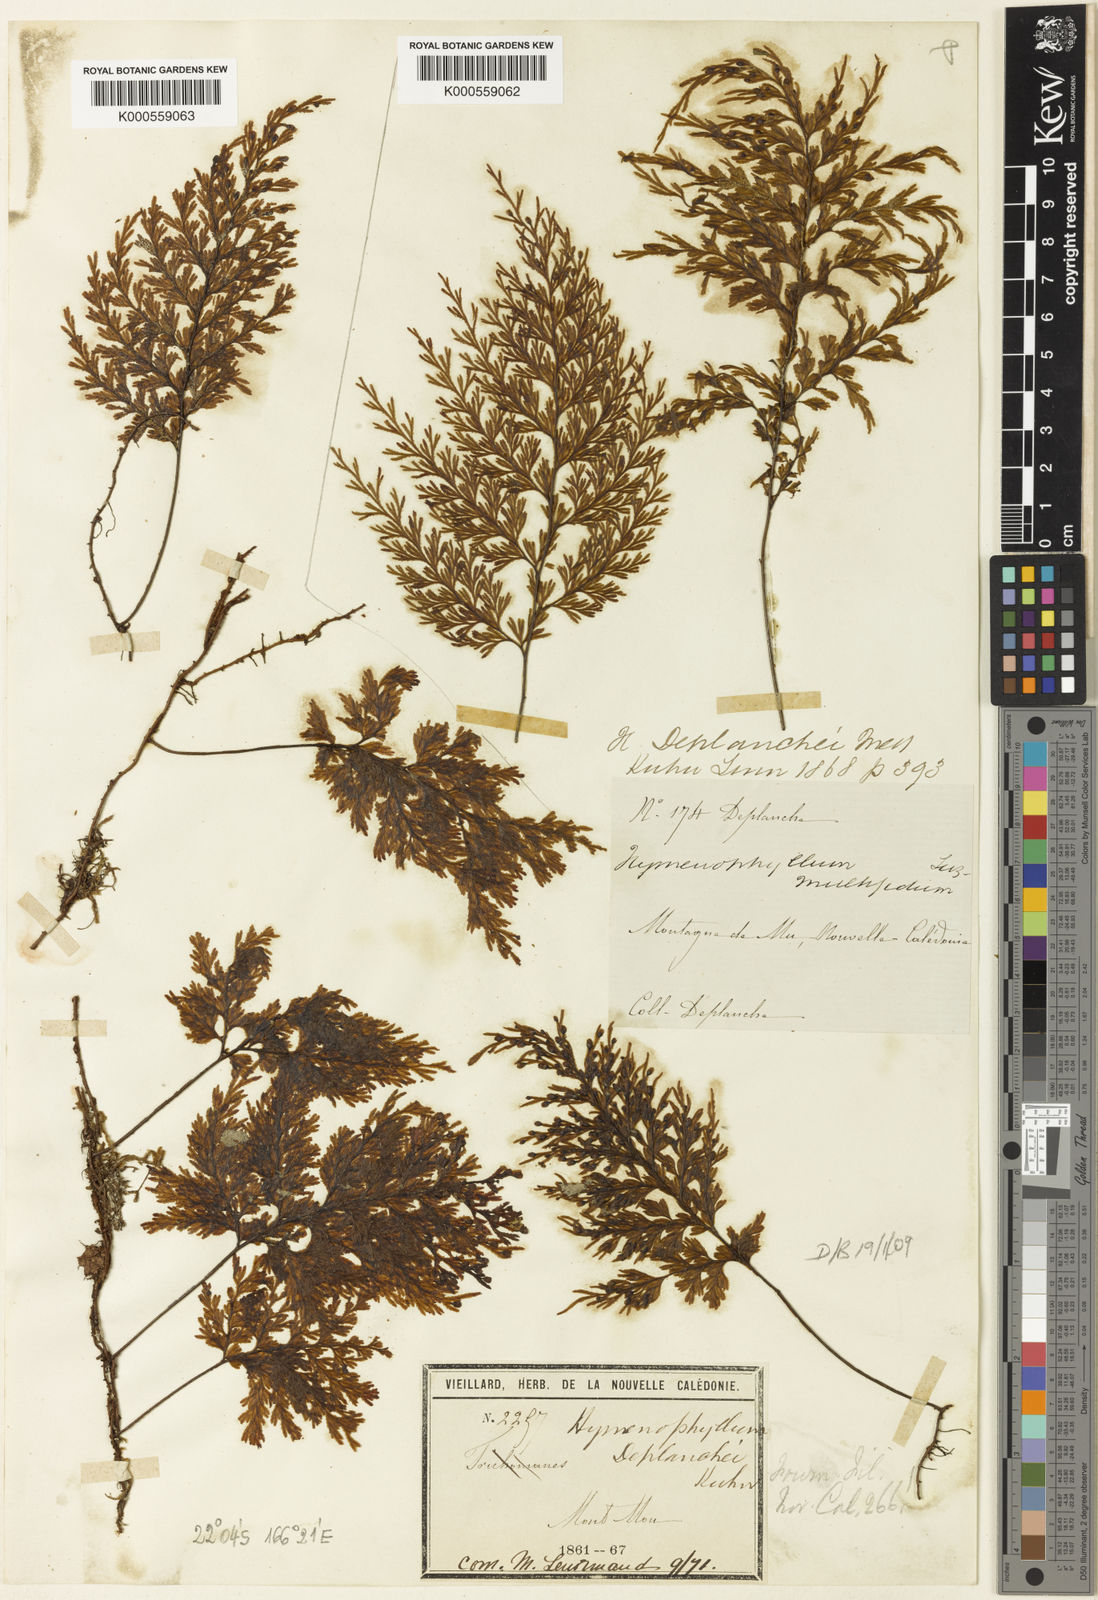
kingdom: Plantae
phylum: Tracheophyta
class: Polypodiopsida
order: Hymenophyllales
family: Hymenophyllaceae
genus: Hymenophyllum
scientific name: Hymenophyllum deplanchei
